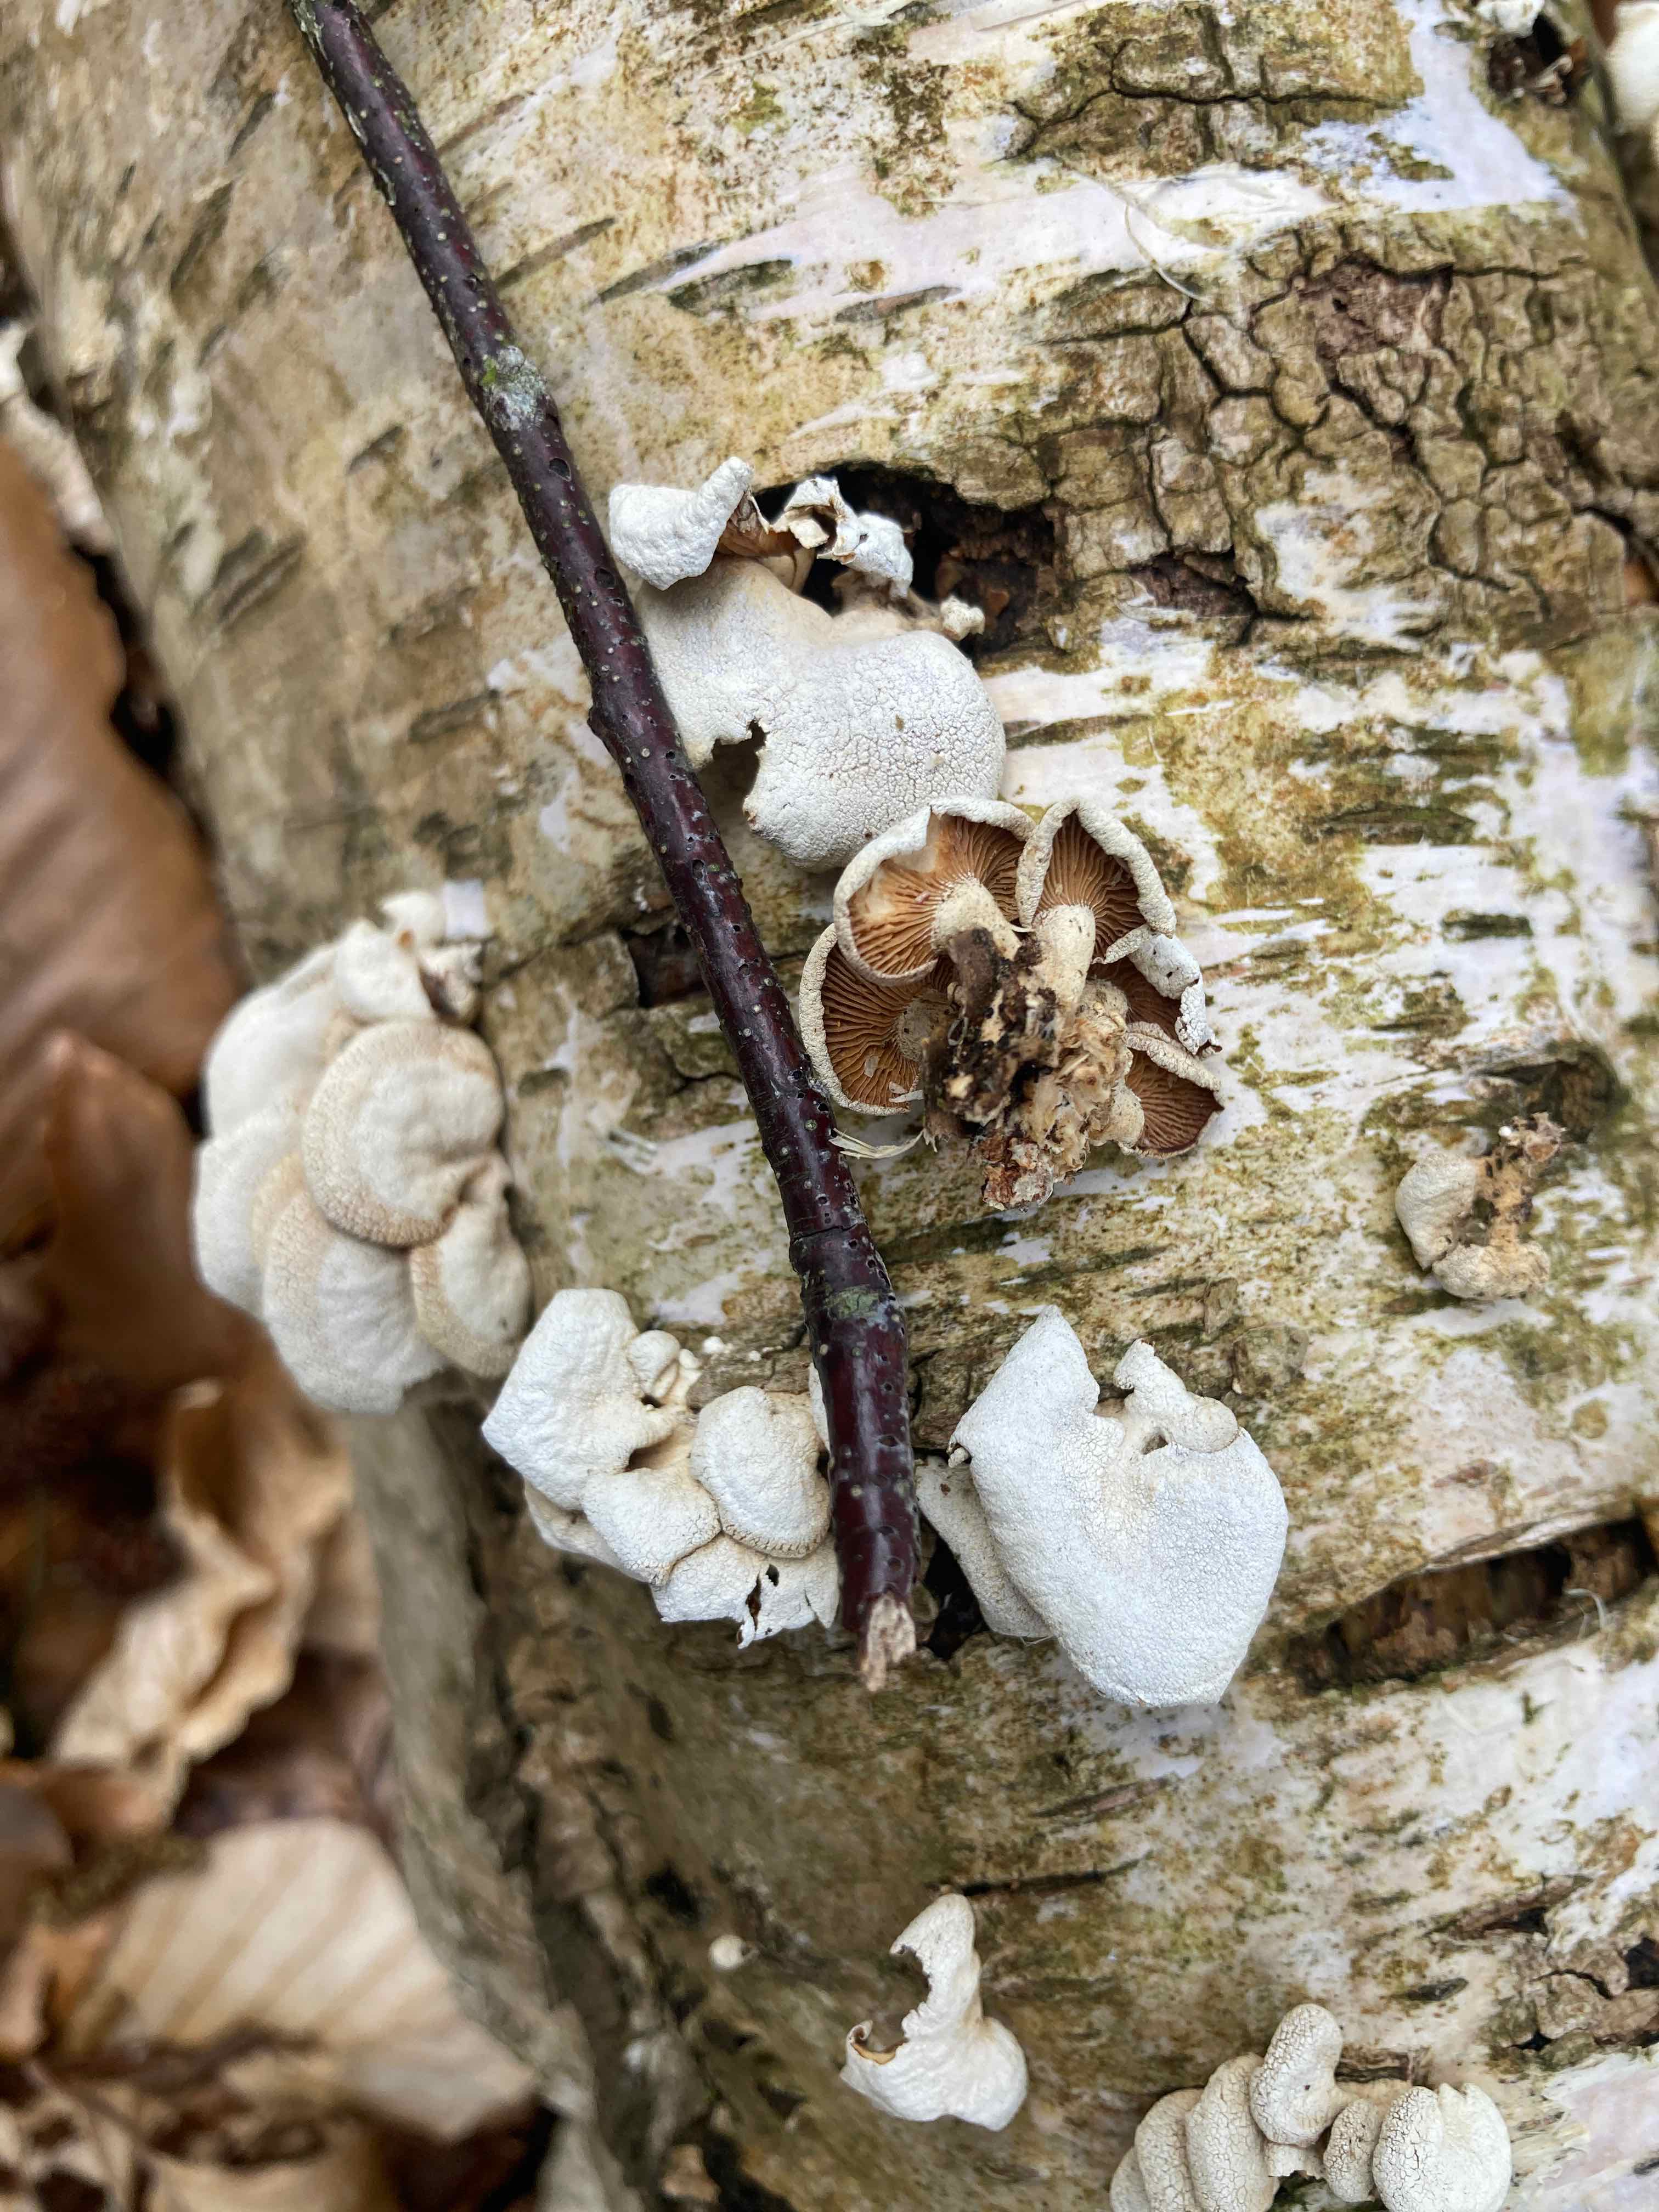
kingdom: Fungi
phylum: Basidiomycota
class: Agaricomycetes
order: Agaricales
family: Mycenaceae
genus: Panellus
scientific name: Panellus stipticus
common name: kliddet epaulethat
